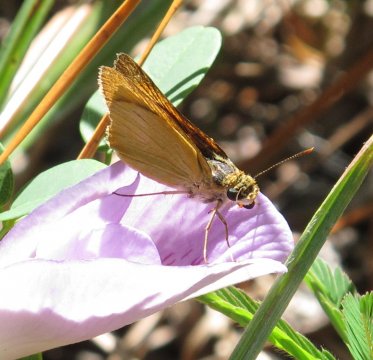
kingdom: Animalia
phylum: Arthropoda
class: Insecta
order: Lepidoptera
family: Hesperiidae
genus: Atrytone
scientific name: Atrytone delaware
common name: Delaware Skipper
